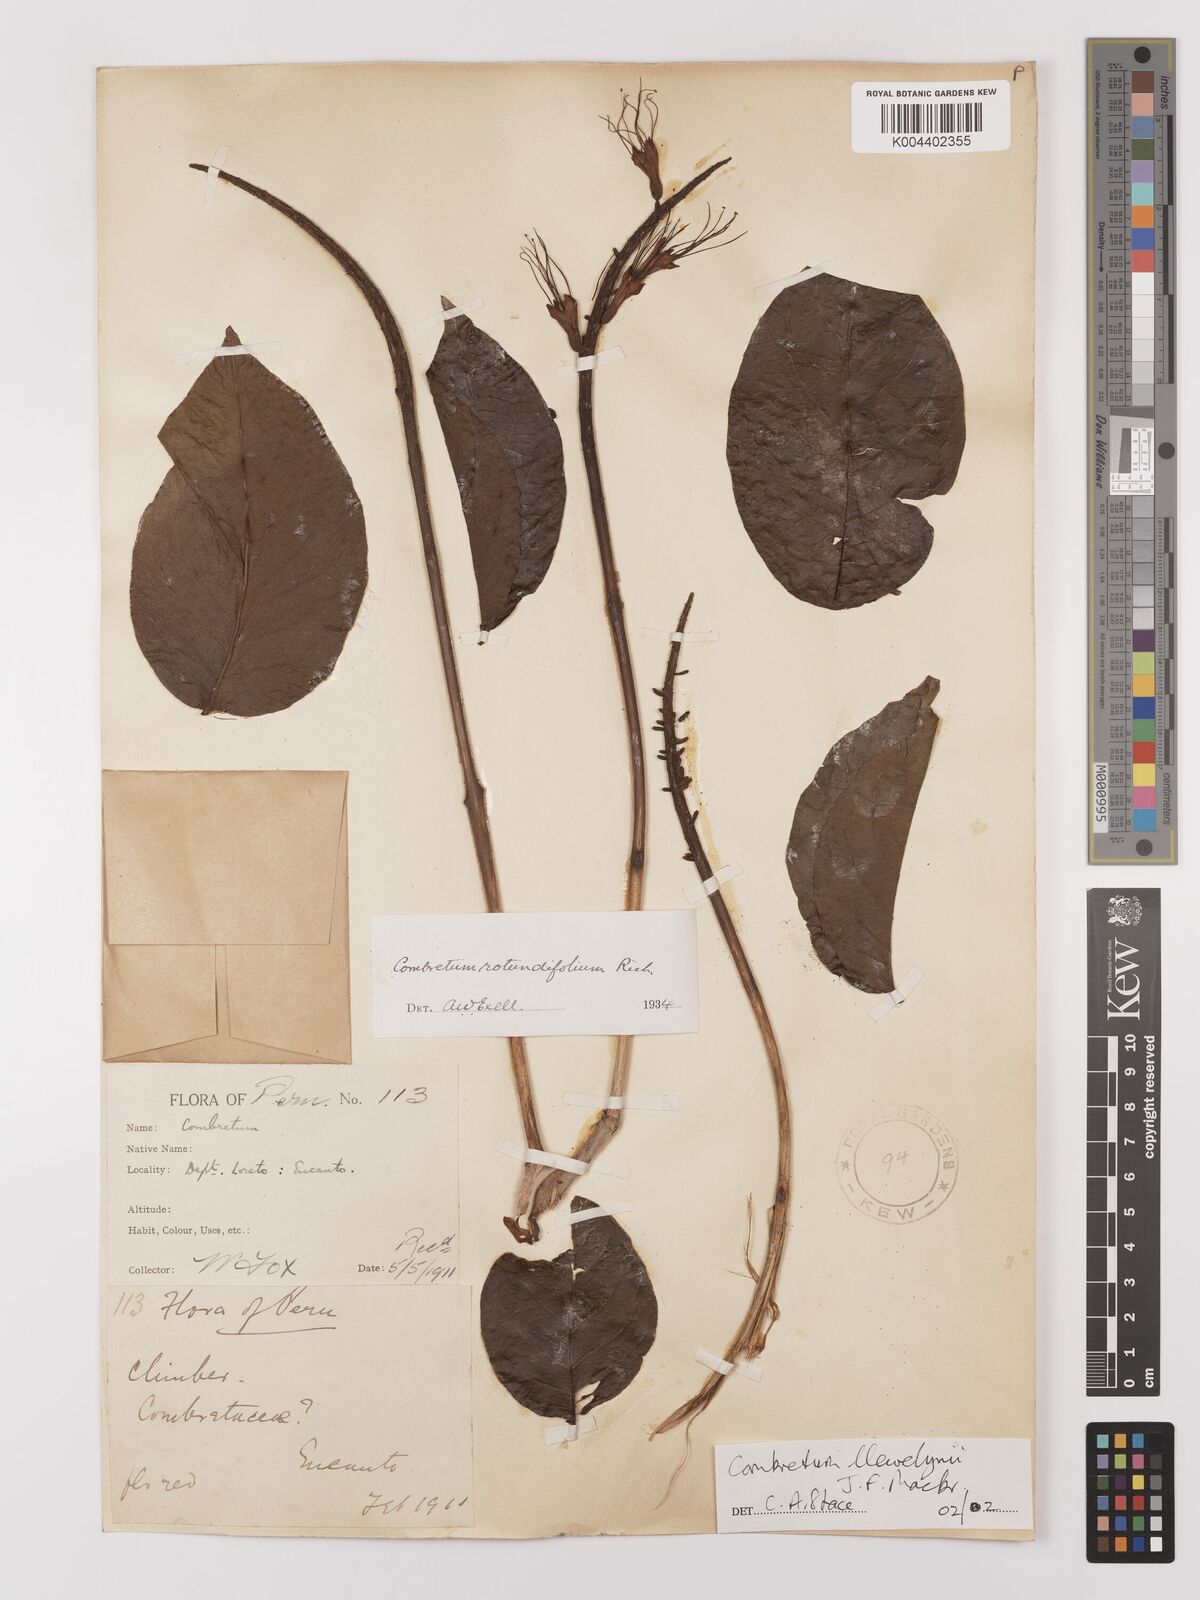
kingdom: Plantae
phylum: Tracheophyta
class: Magnoliopsida
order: Myrtales
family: Combretaceae
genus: Combretum
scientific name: Combretum llewelynii
